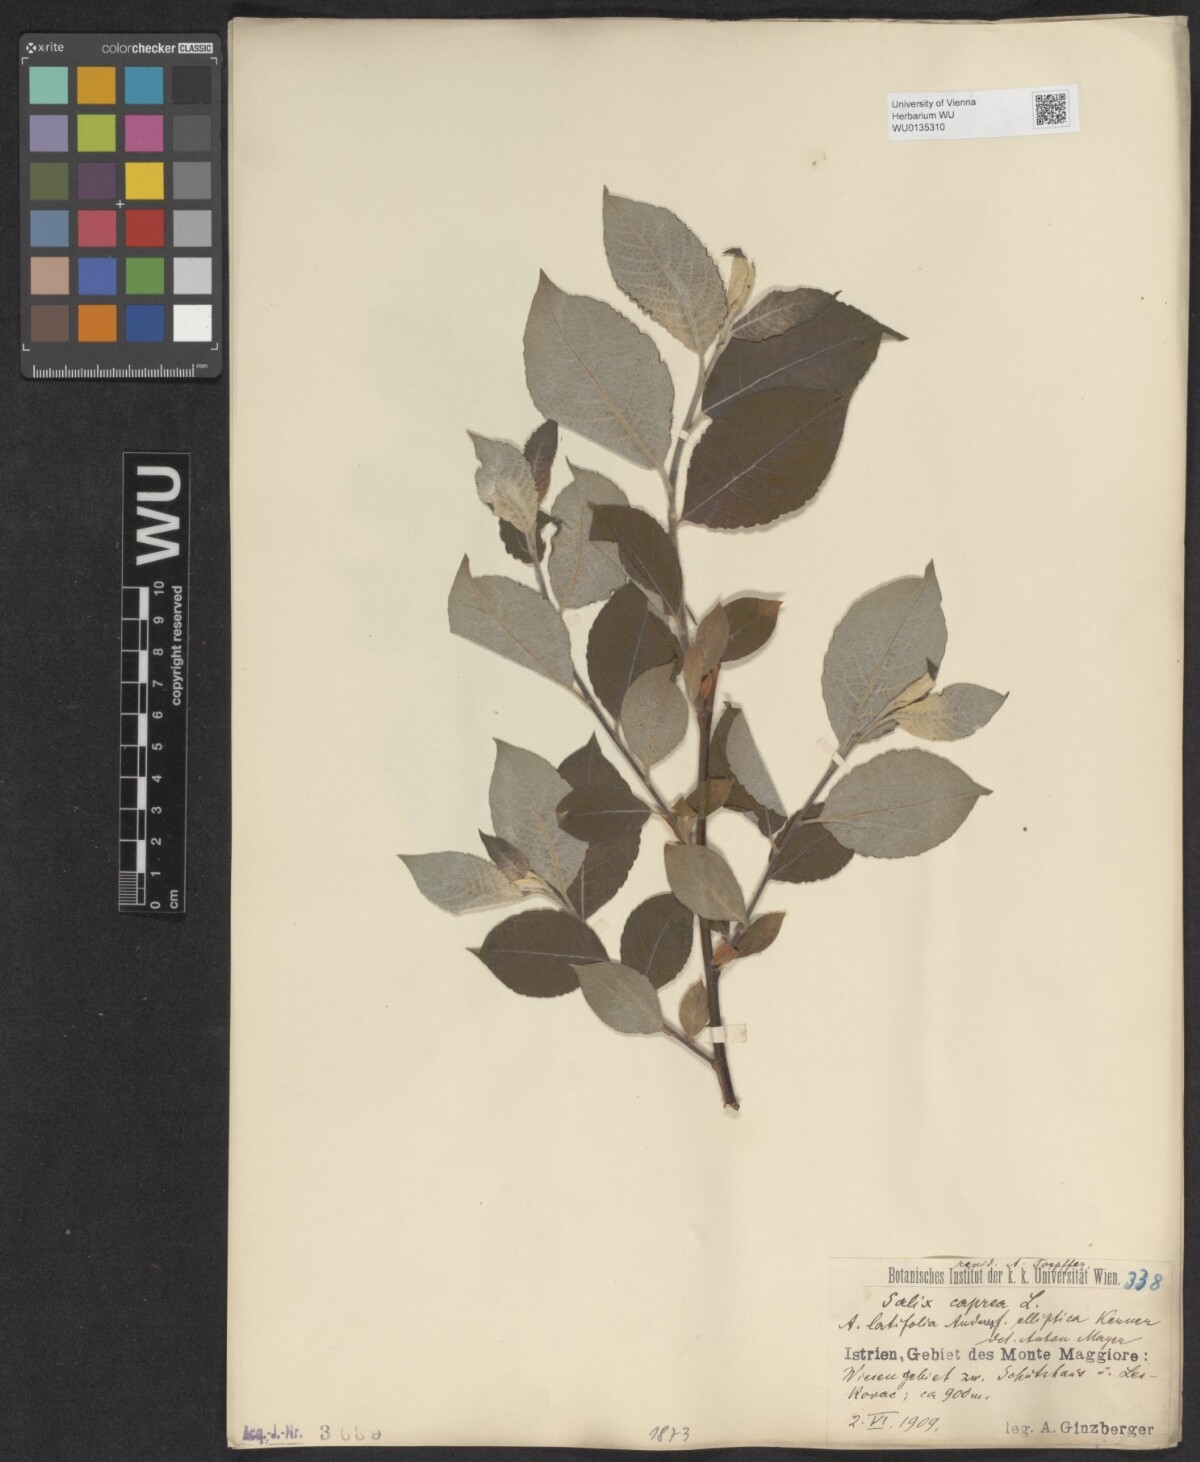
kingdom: Plantae
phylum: Tracheophyta
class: Magnoliopsida
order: Malpighiales
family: Salicaceae
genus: Salix
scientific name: Salix caprea
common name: Goat willow
